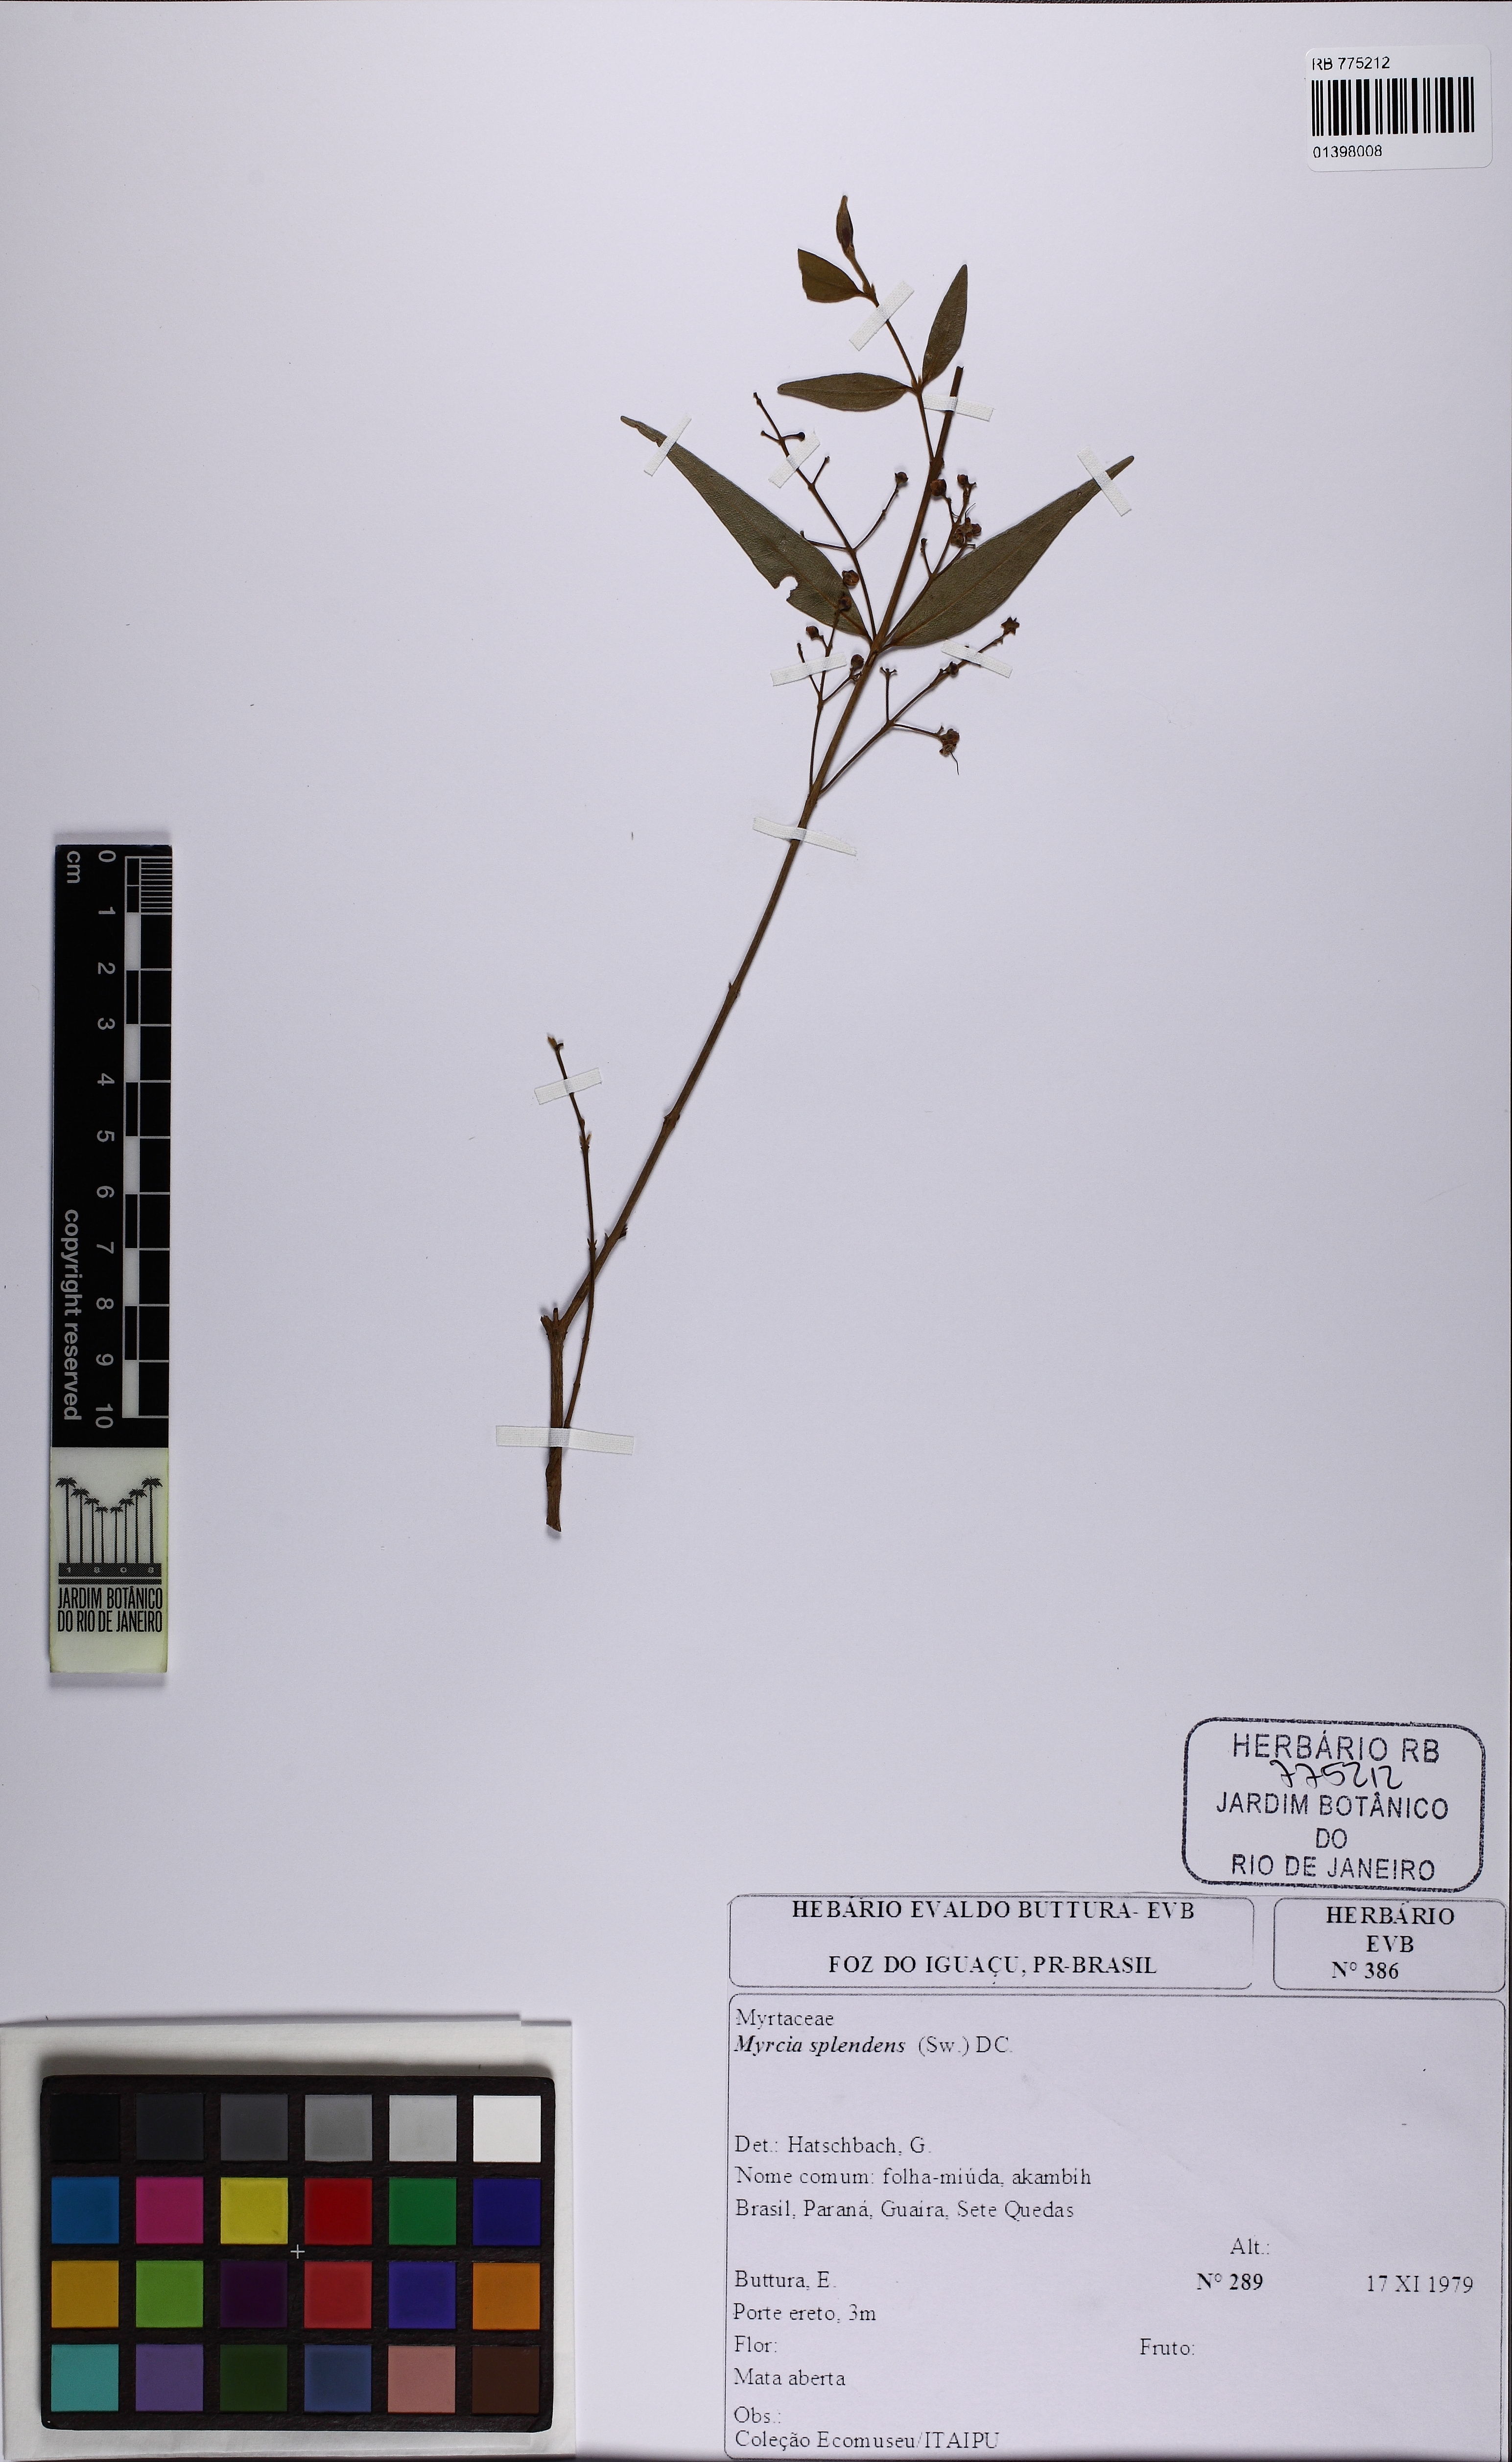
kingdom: Plantae
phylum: Tracheophyta
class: Magnoliopsida
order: Myrtales
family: Myrtaceae
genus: Myrcia
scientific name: Myrcia splendens
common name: Surinam cherry
